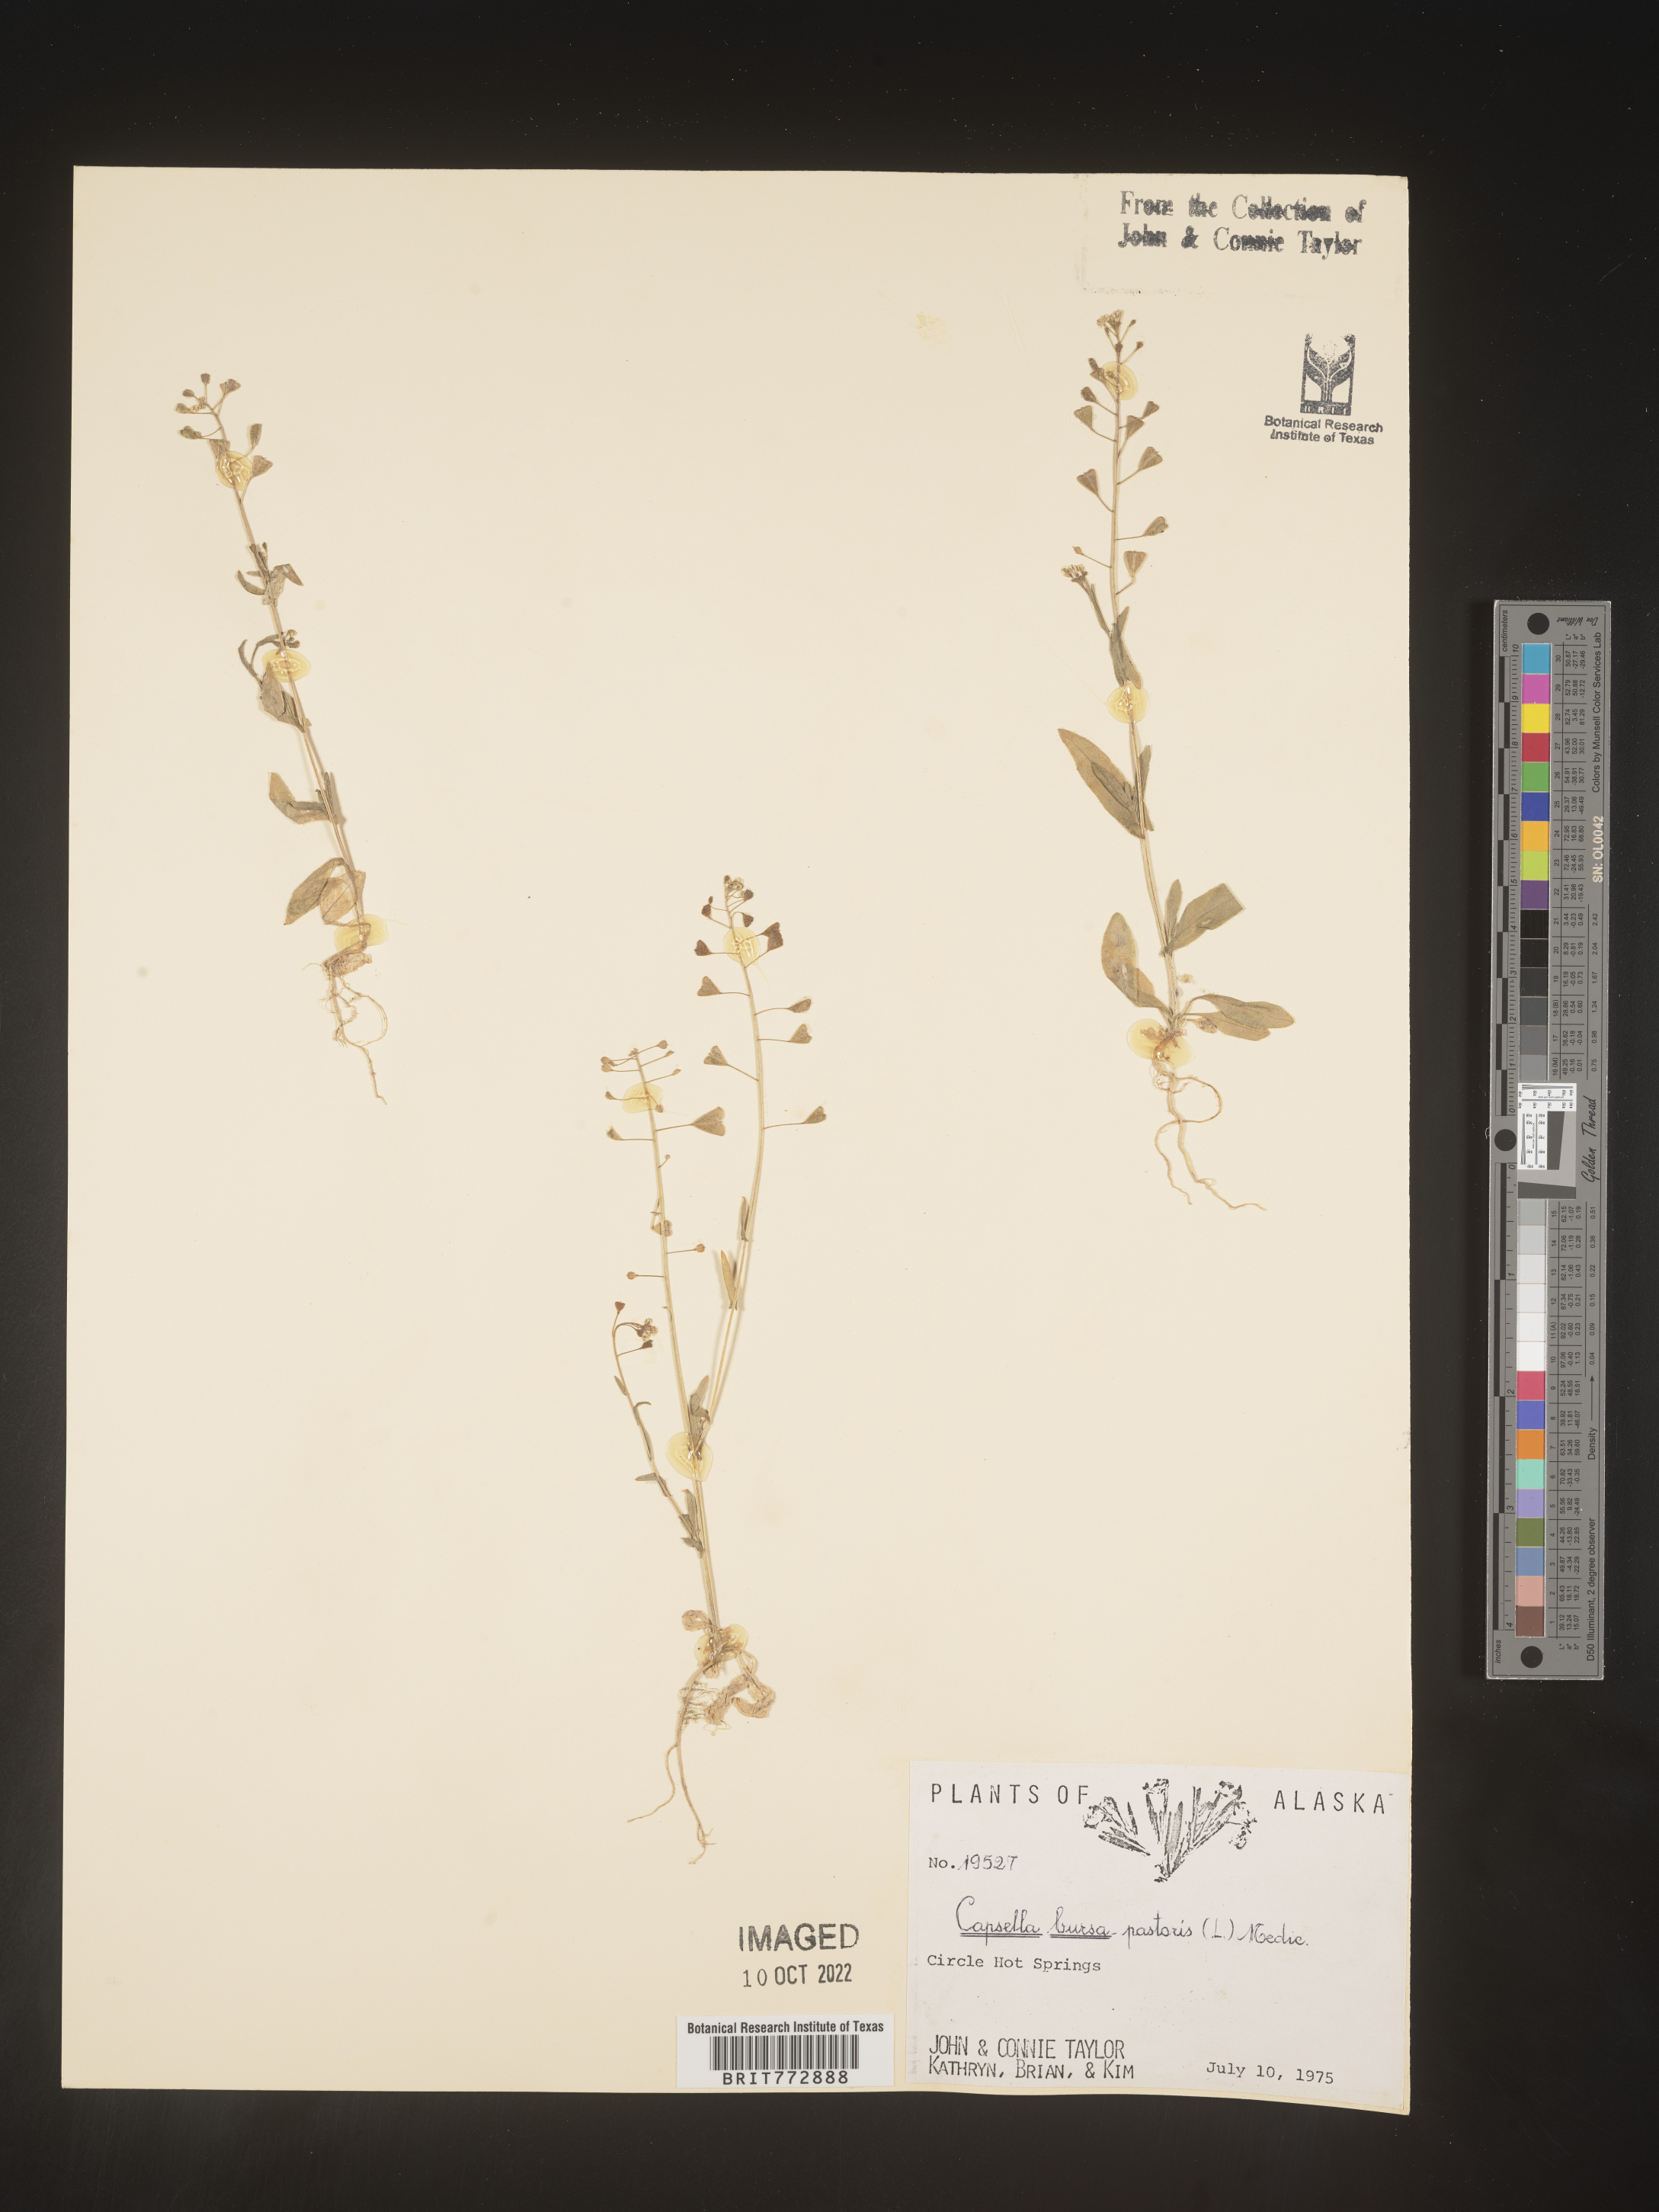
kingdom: Plantae
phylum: Tracheophyta
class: Magnoliopsida
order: Brassicales
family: Brassicaceae
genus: Capsella
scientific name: Capsella bursa-pastoris
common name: Shepherd's purse
